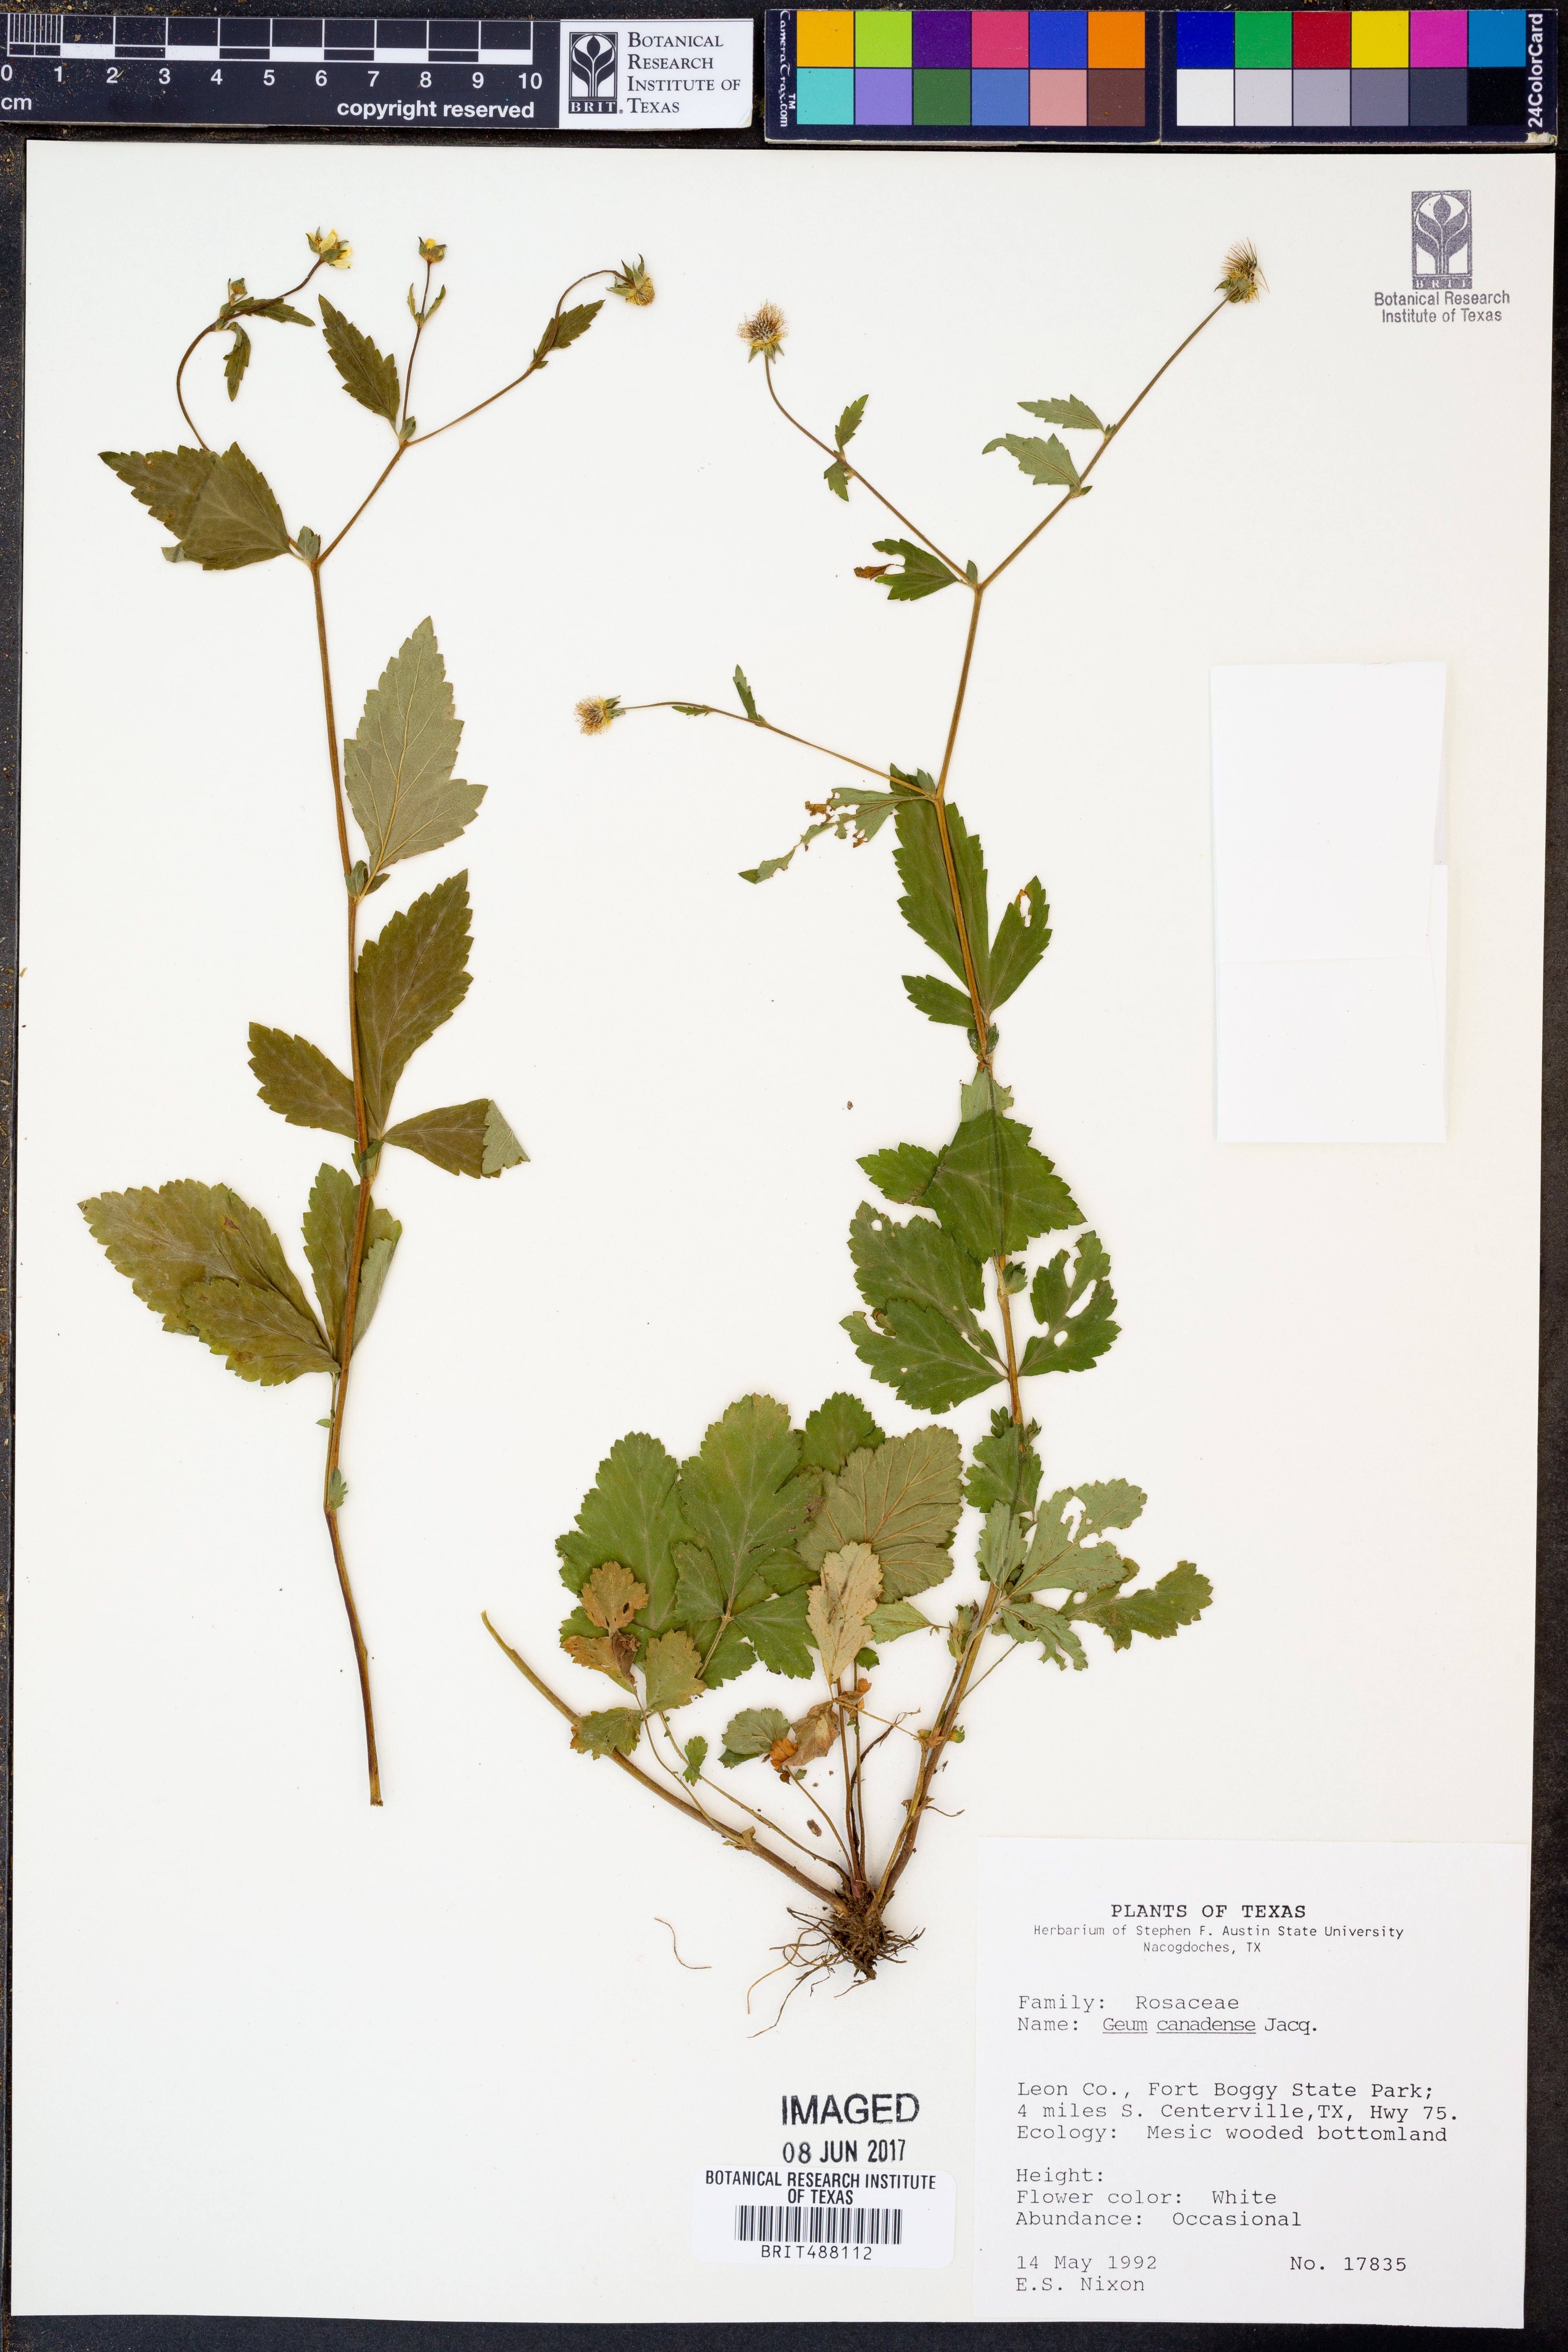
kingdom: Plantae
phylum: Tracheophyta
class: Magnoliopsida
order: Rosales
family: Rosaceae
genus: Geum
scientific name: Geum canadense
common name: White avens
